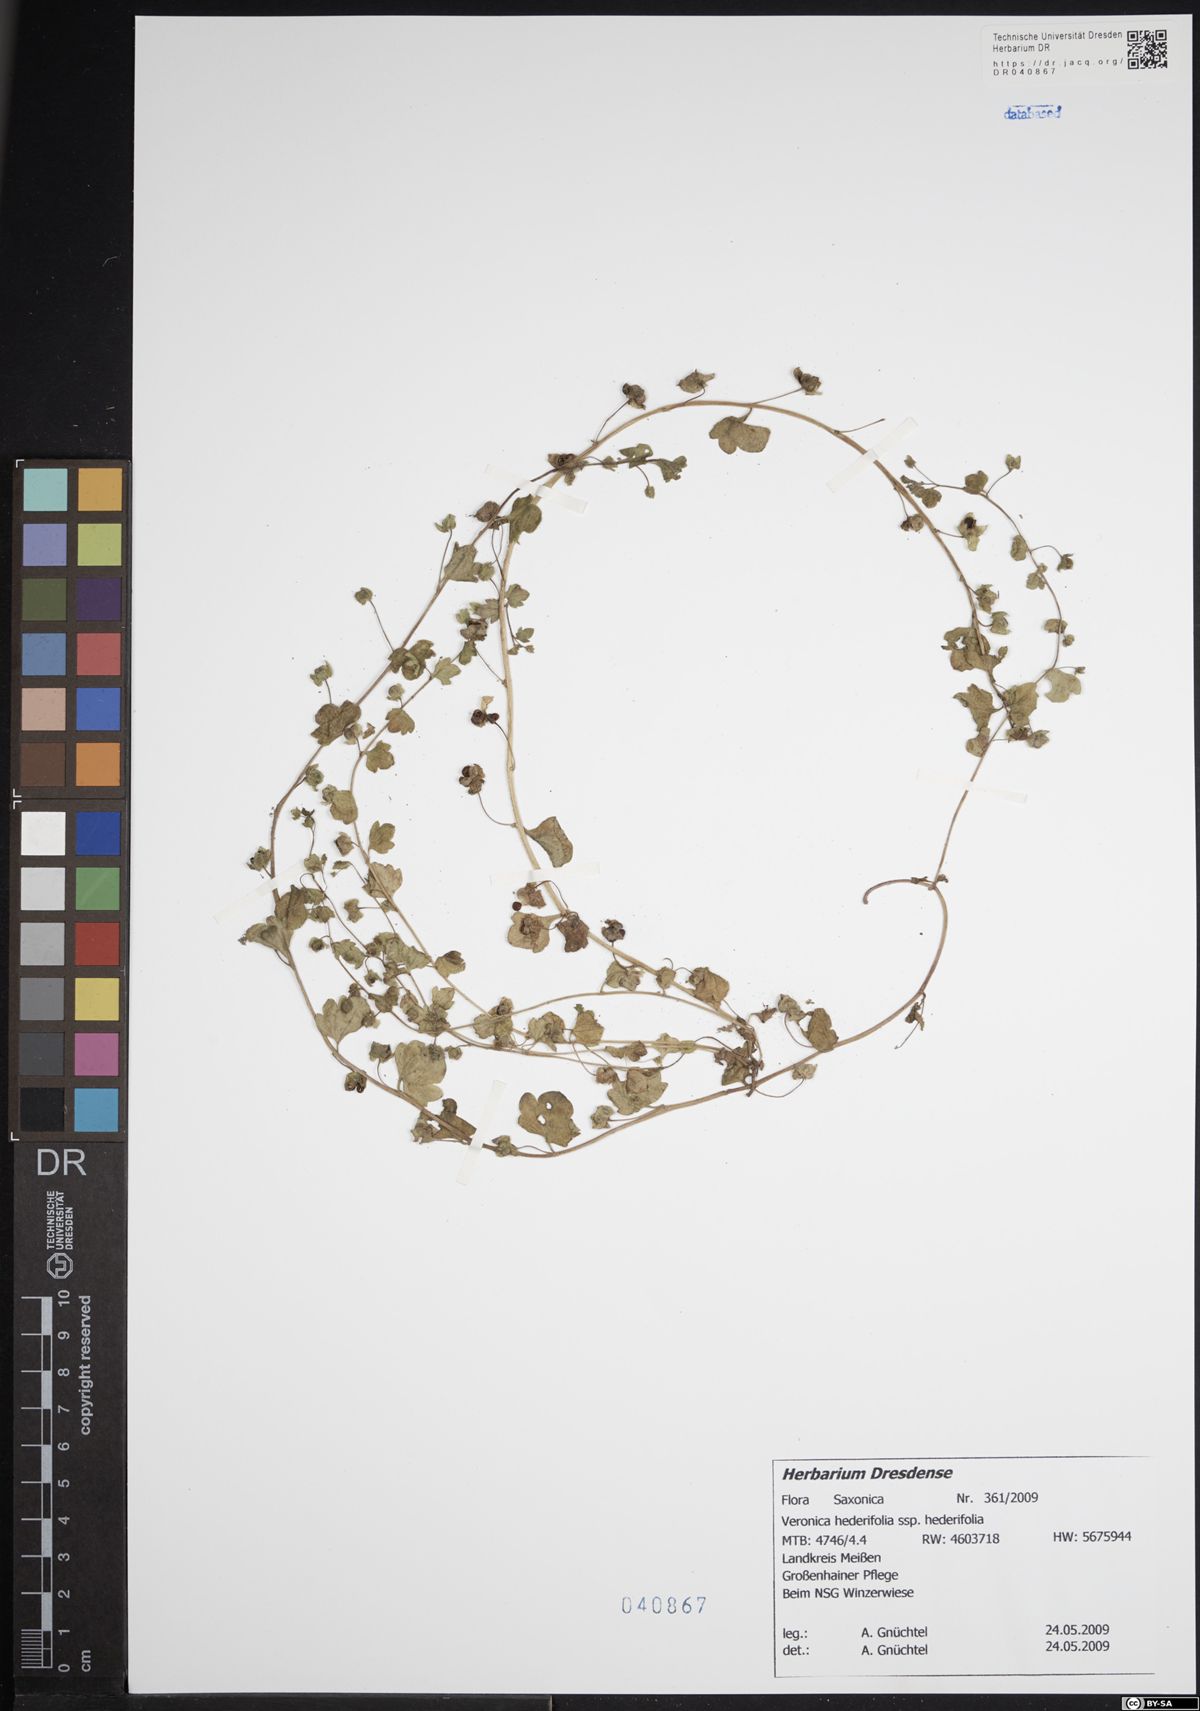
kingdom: Plantae
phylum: Tracheophyta
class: Magnoliopsida
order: Lamiales
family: Plantaginaceae
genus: Veronica
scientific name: Veronica hederifolia
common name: Ivy-leaved speedwell
